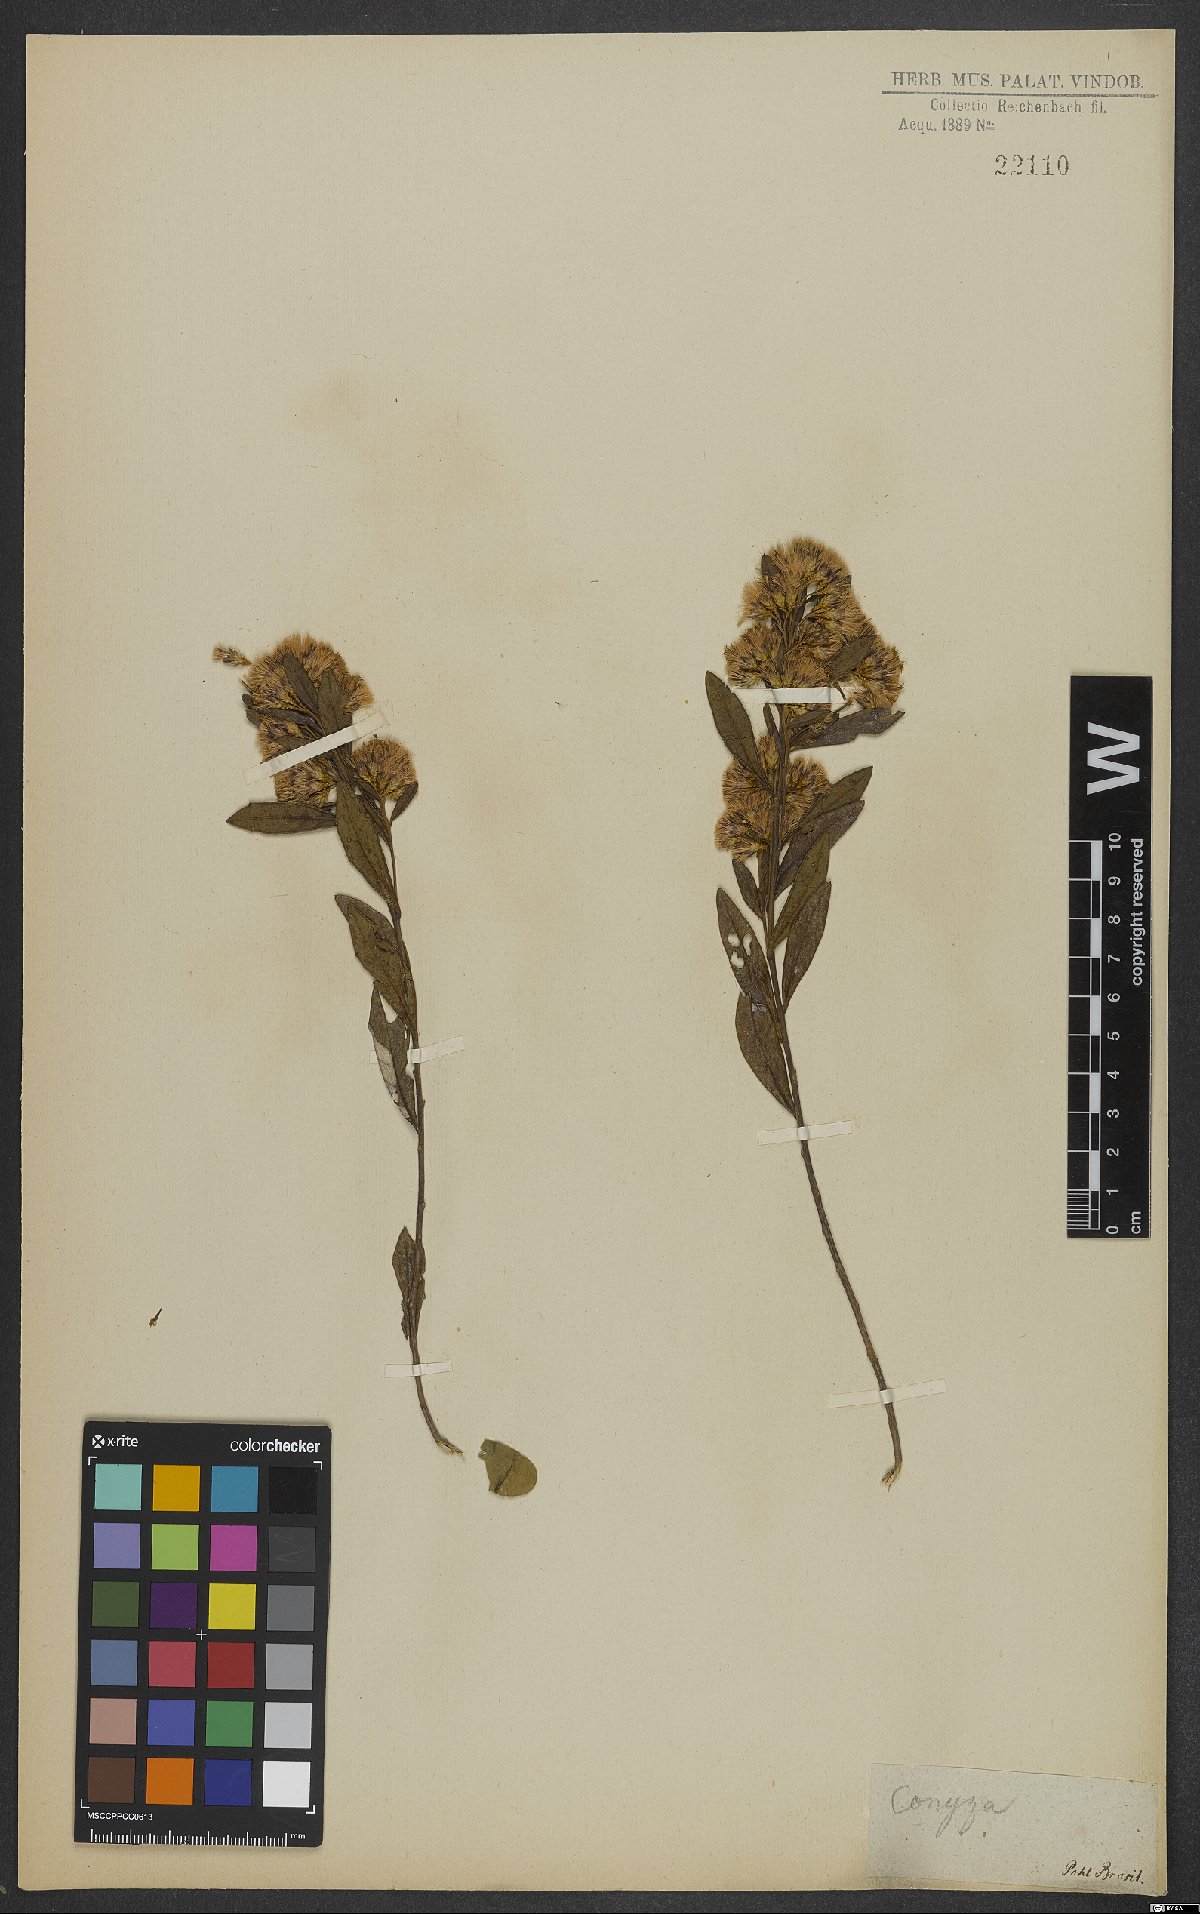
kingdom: Plantae
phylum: Tracheophyta
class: Magnoliopsida
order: Asterales
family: Asteraceae
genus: Conyza
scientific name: Conyza
